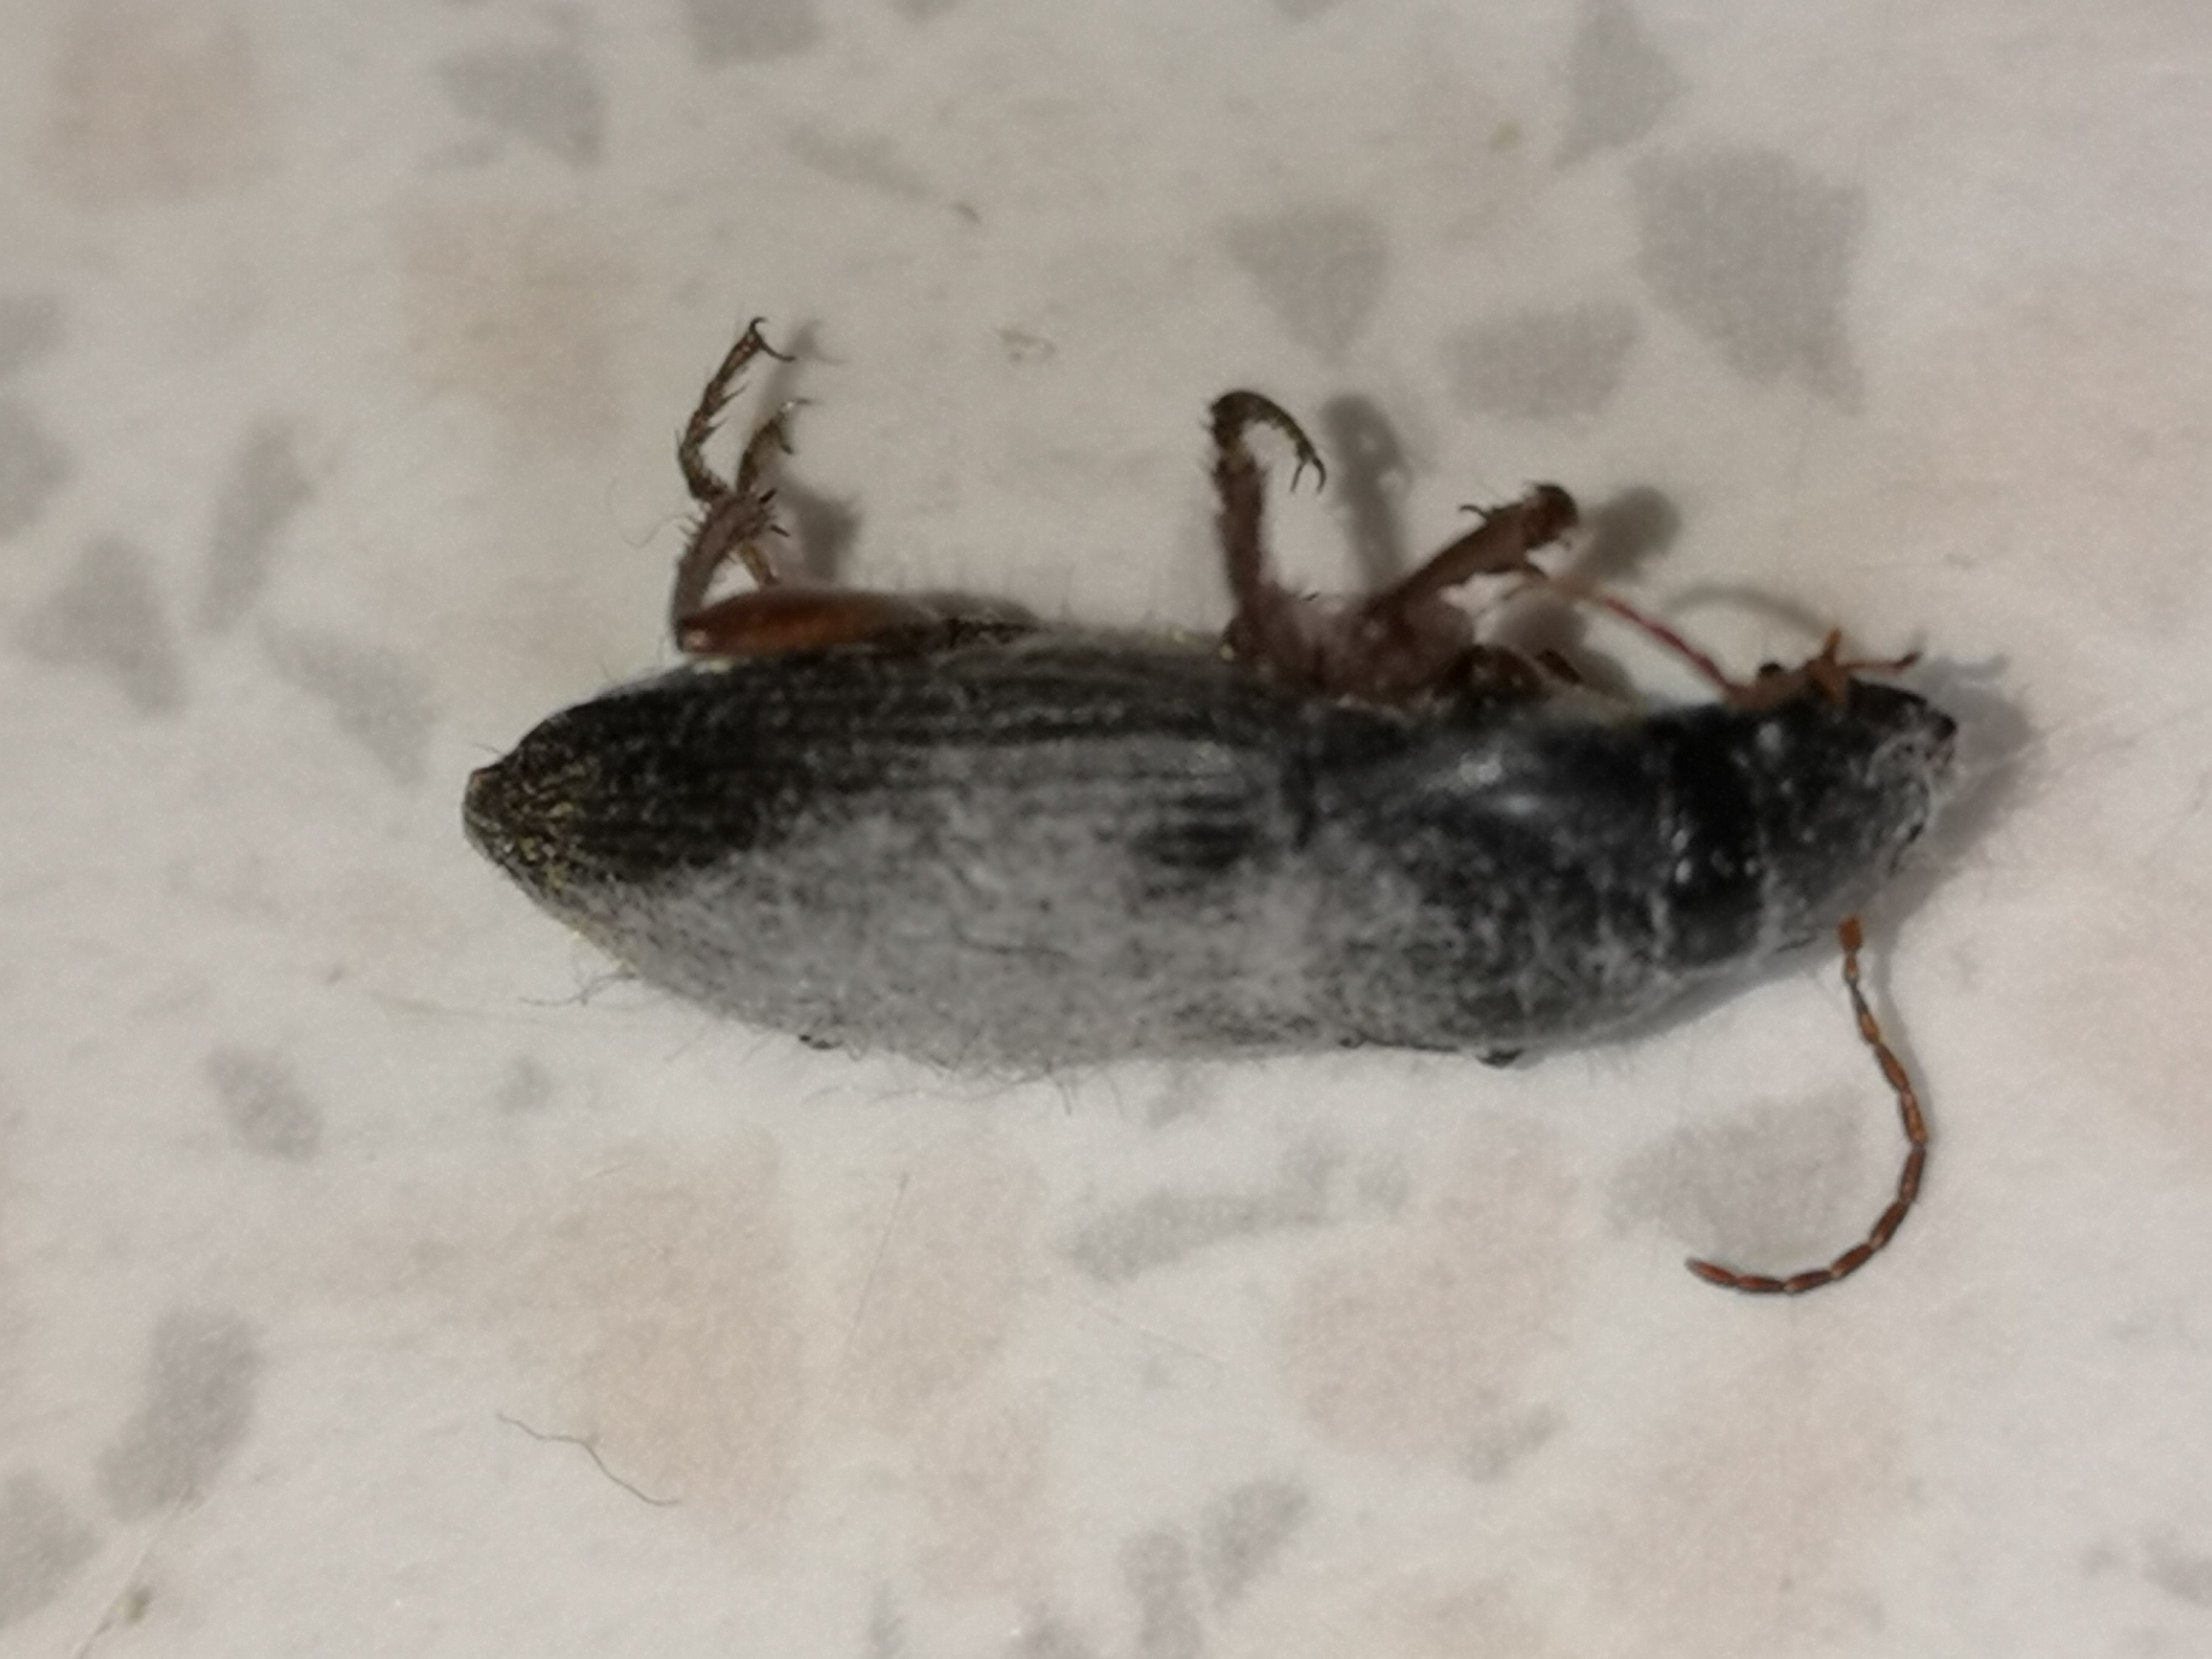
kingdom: Fungi
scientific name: Fungi
